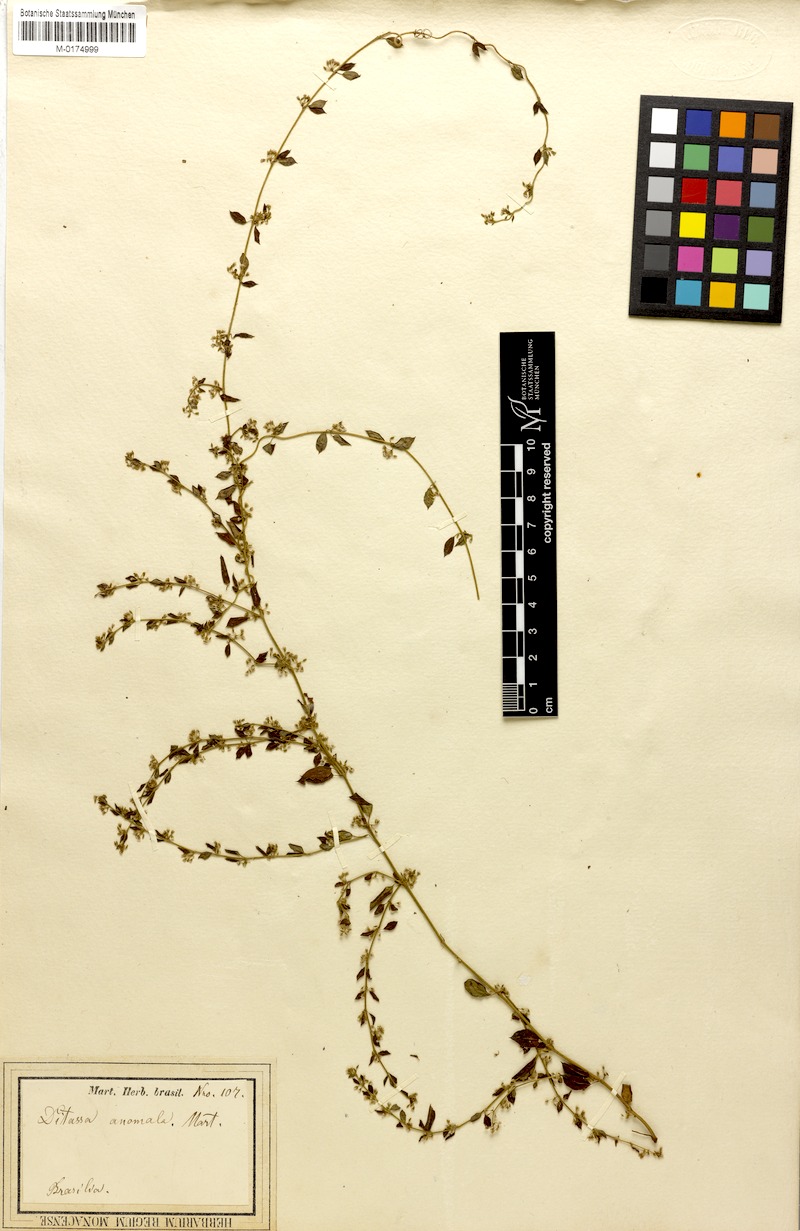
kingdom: Plantae
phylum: Tracheophyta
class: Magnoliopsida
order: Gentianales
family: Apocynaceae
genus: Metastelma
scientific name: Metastelma burchellii
